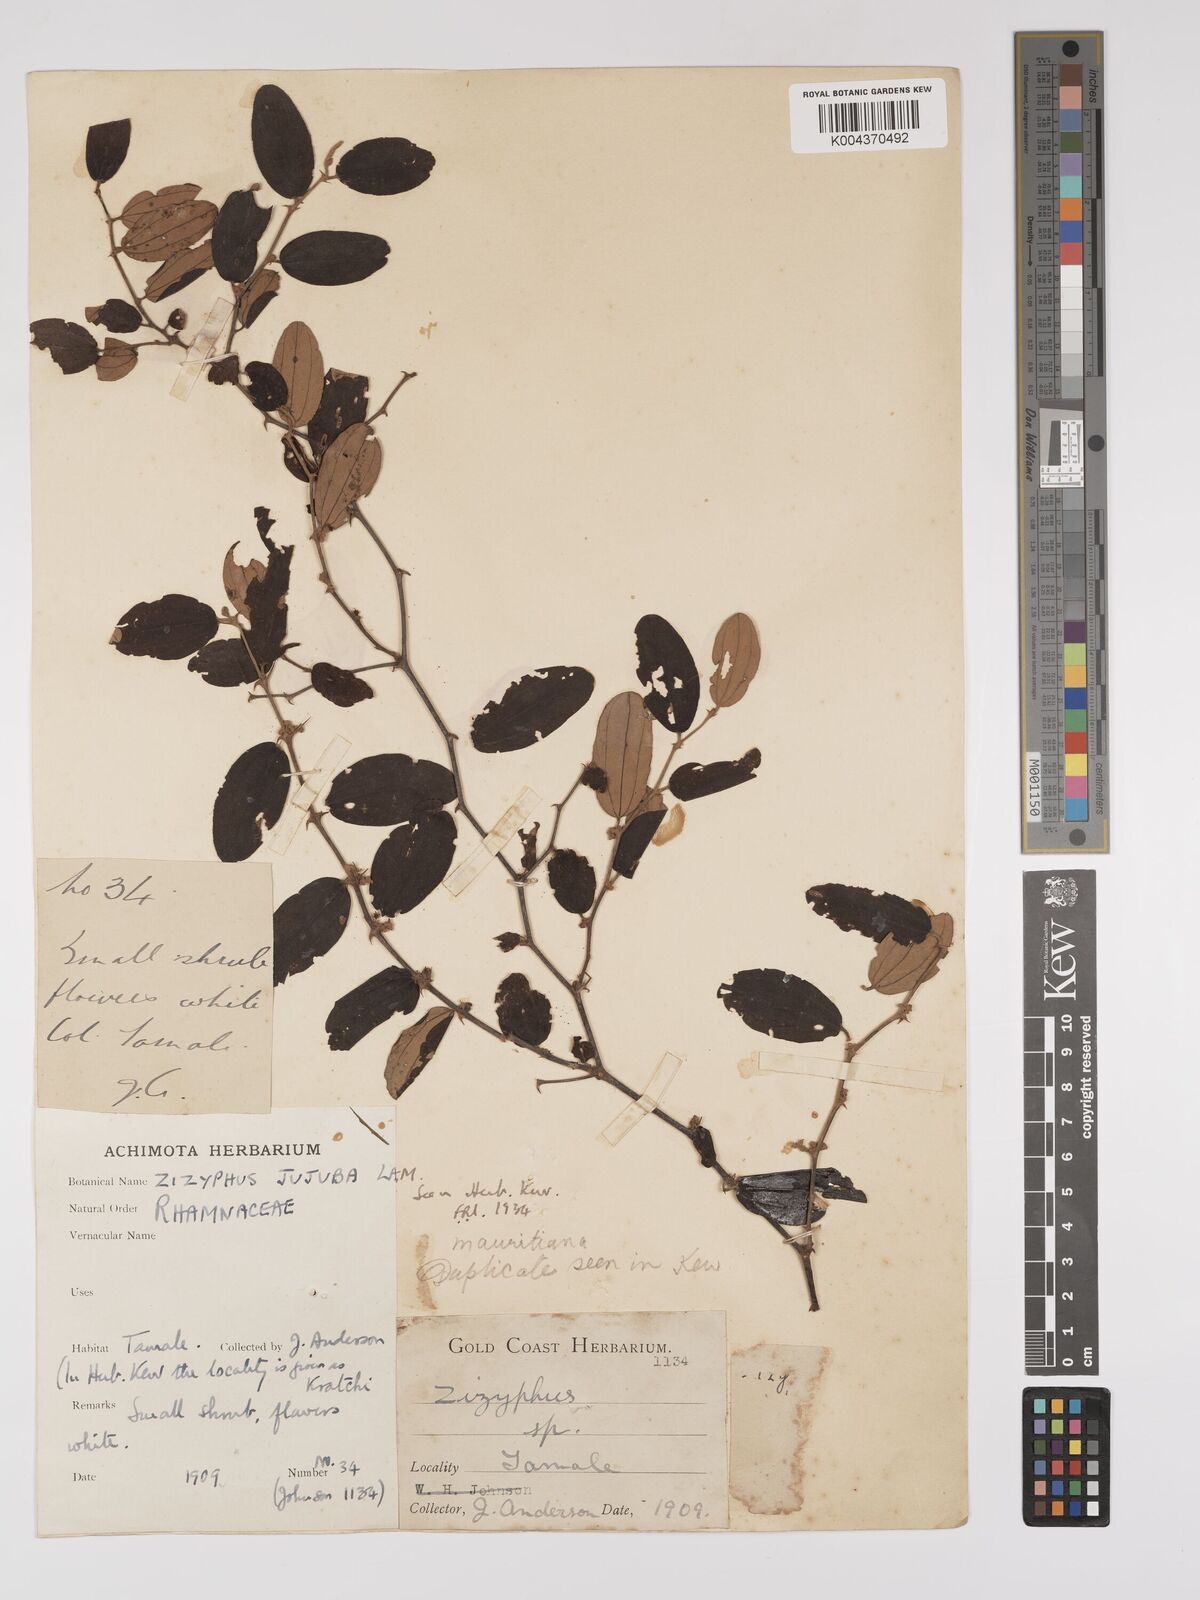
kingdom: Plantae
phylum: Tracheophyta
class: Magnoliopsida
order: Rosales
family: Rhamnaceae
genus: Ziziphus
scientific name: Ziziphus mauritiana
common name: Indian jujube
